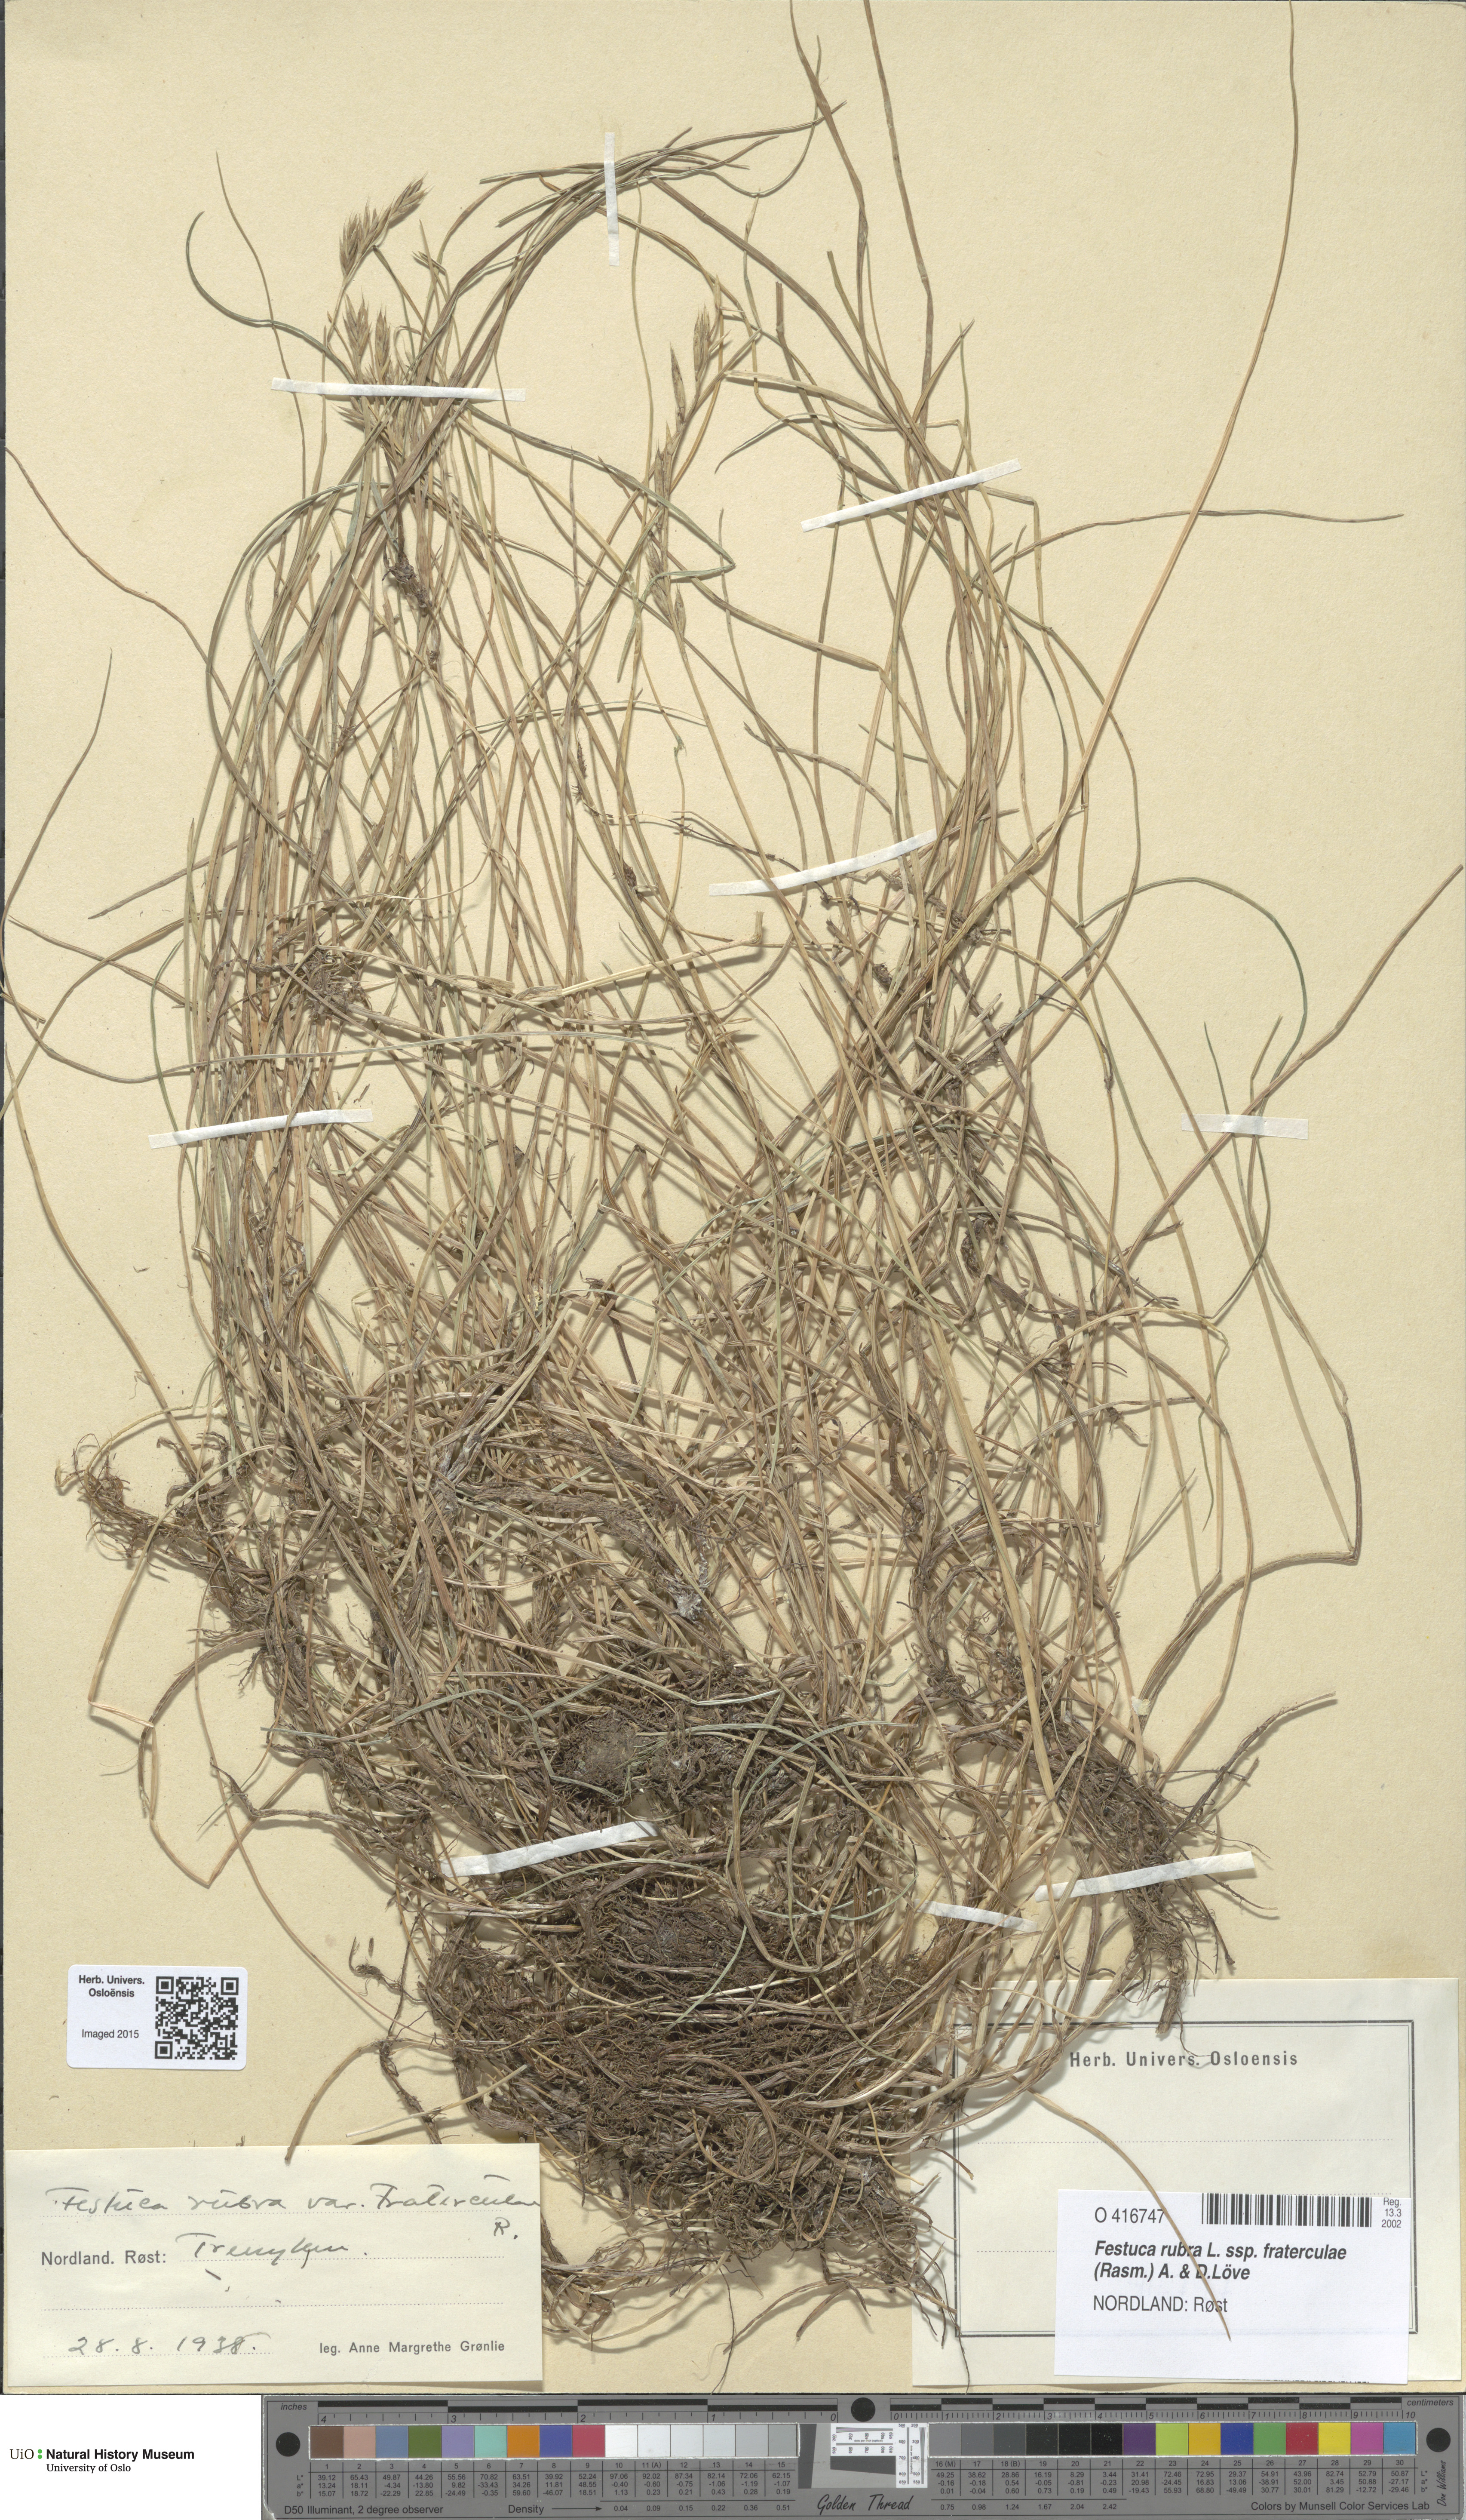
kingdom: Plantae
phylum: Tracheophyta
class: Liliopsida
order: Poales
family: Poaceae
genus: Festuca
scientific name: Festuca rubra
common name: Red fescue
